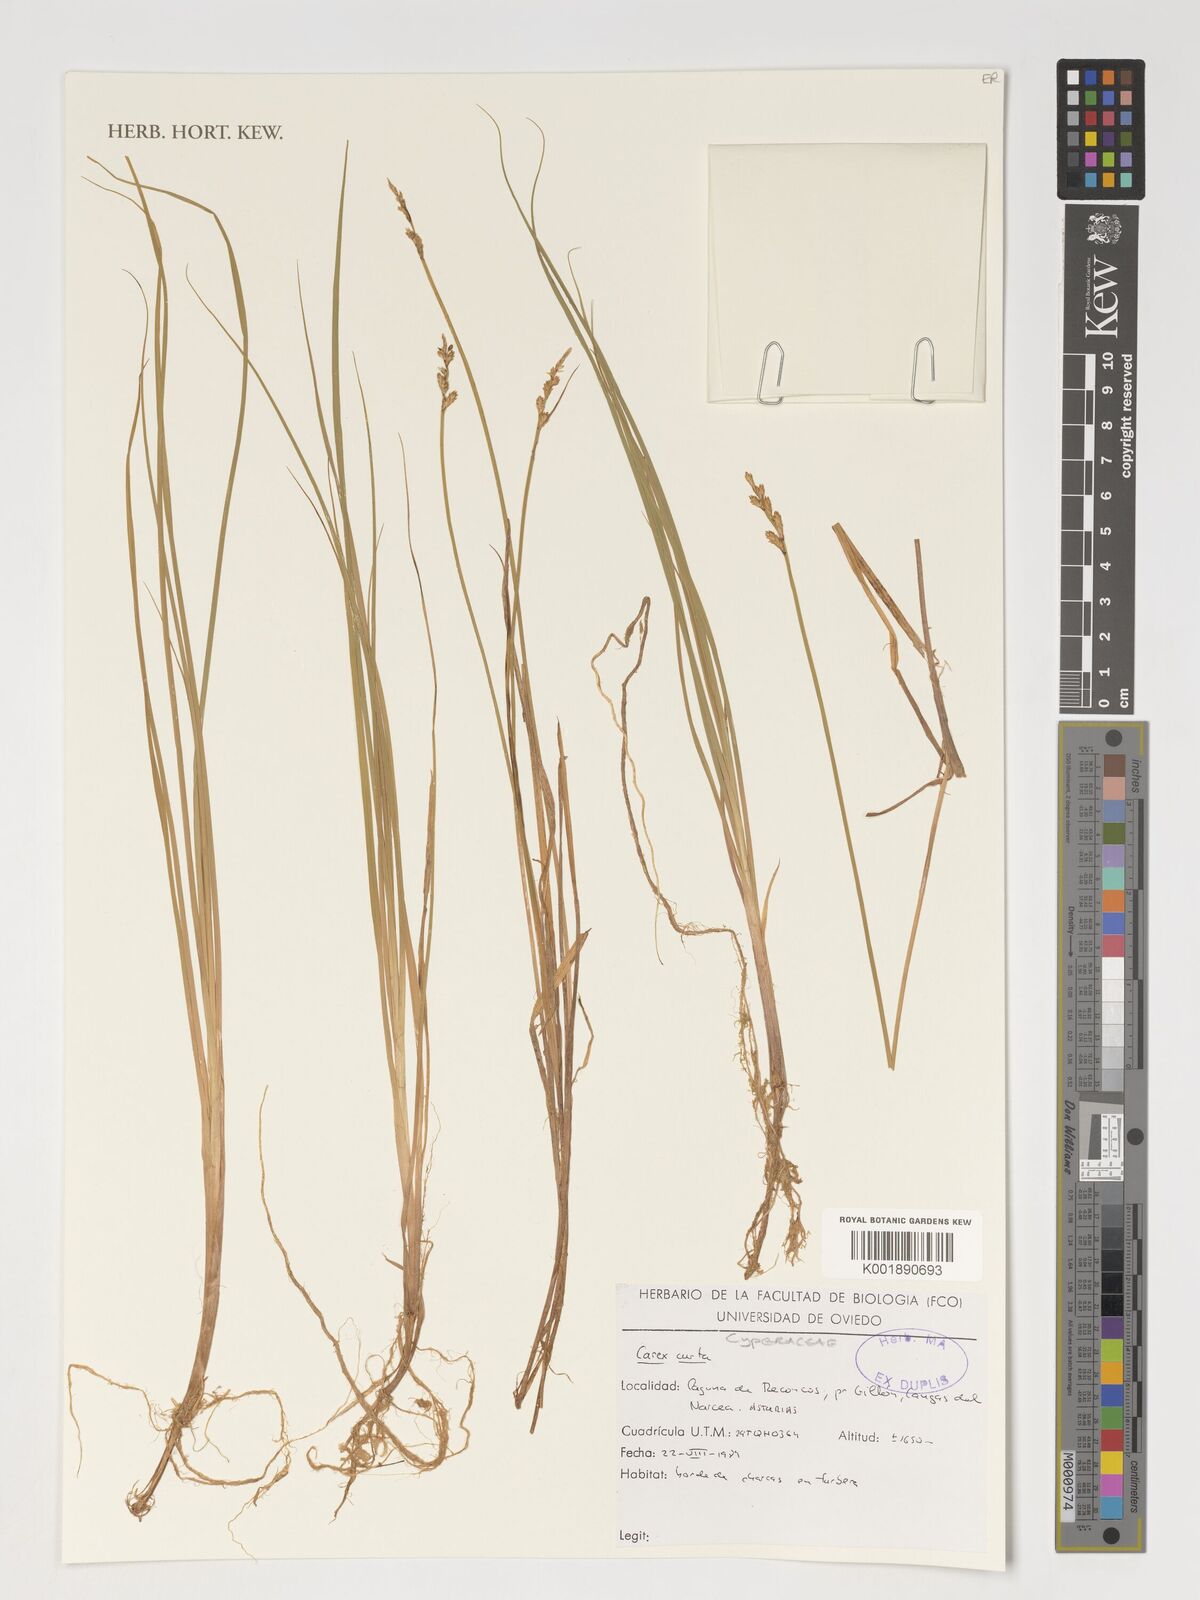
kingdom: Plantae
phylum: Tracheophyta
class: Liliopsida
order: Poales
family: Cyperaceae
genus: Carex
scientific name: Carex curta
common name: White sedge
